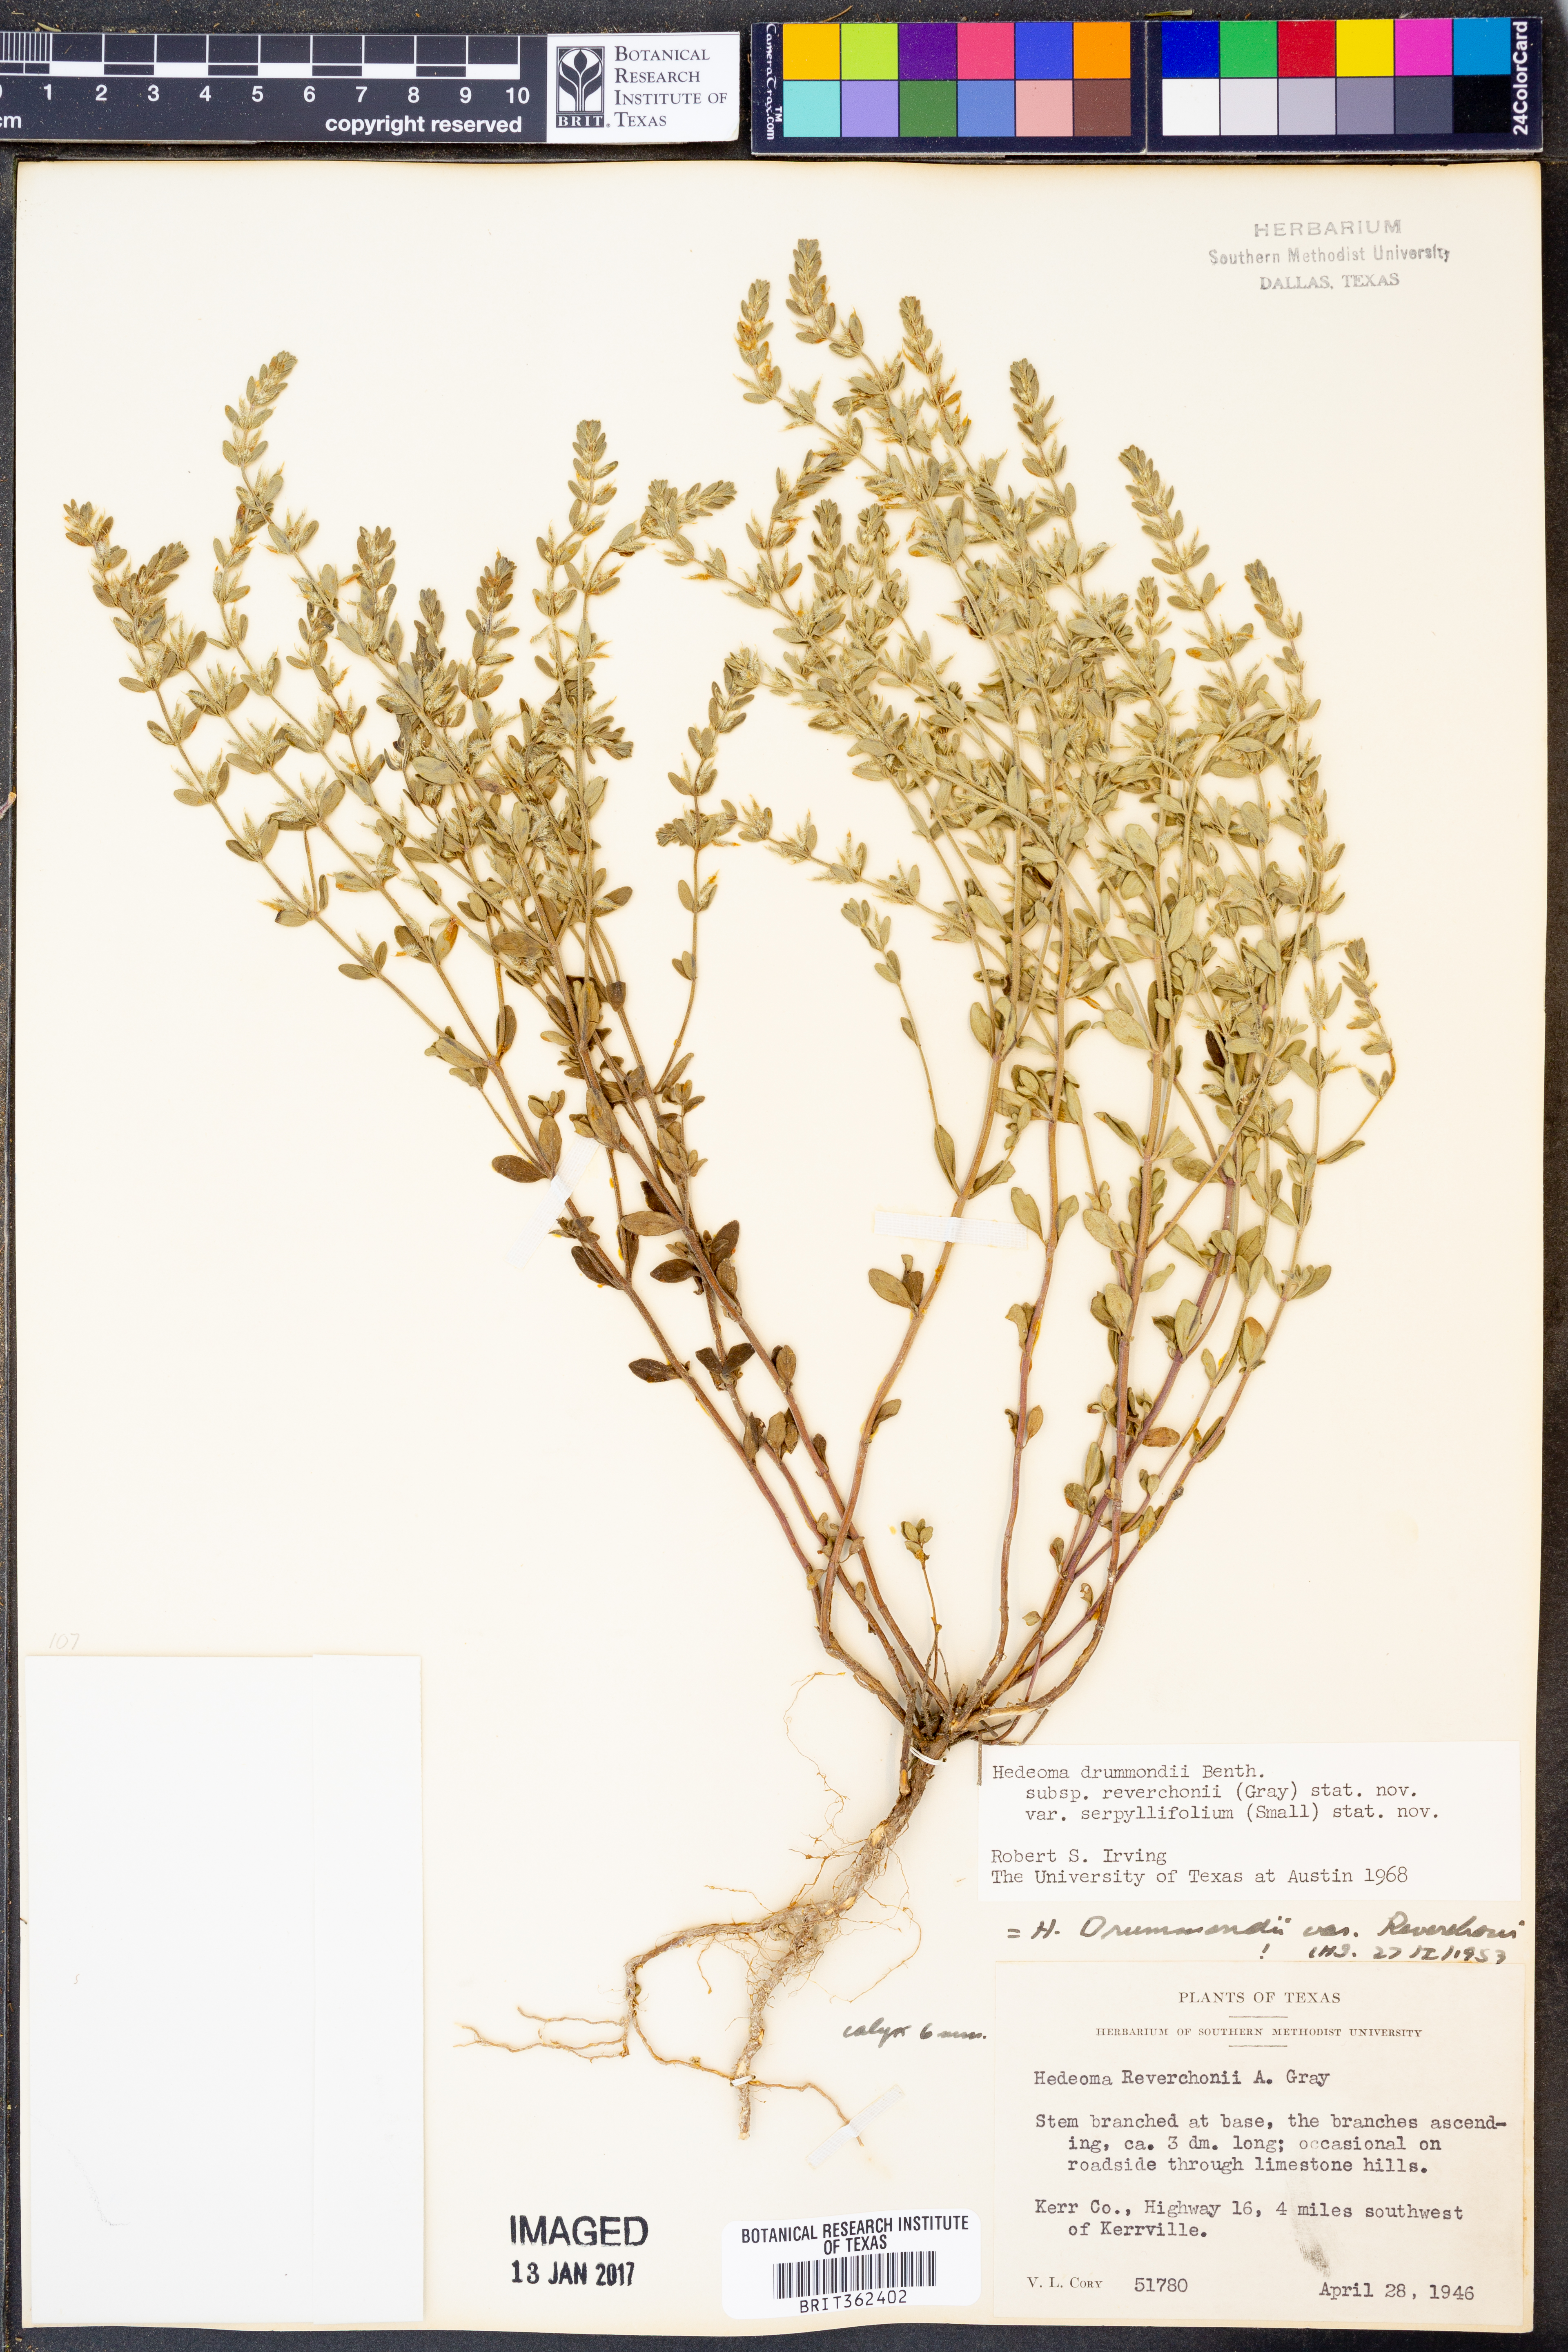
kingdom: Plantae
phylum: Tracheophyta
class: Magnoliopsida
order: Lamiales
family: Lamiaceae
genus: Hedeoma
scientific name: Hedeoma reverchonii
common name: Reverchon's false penny-royal
